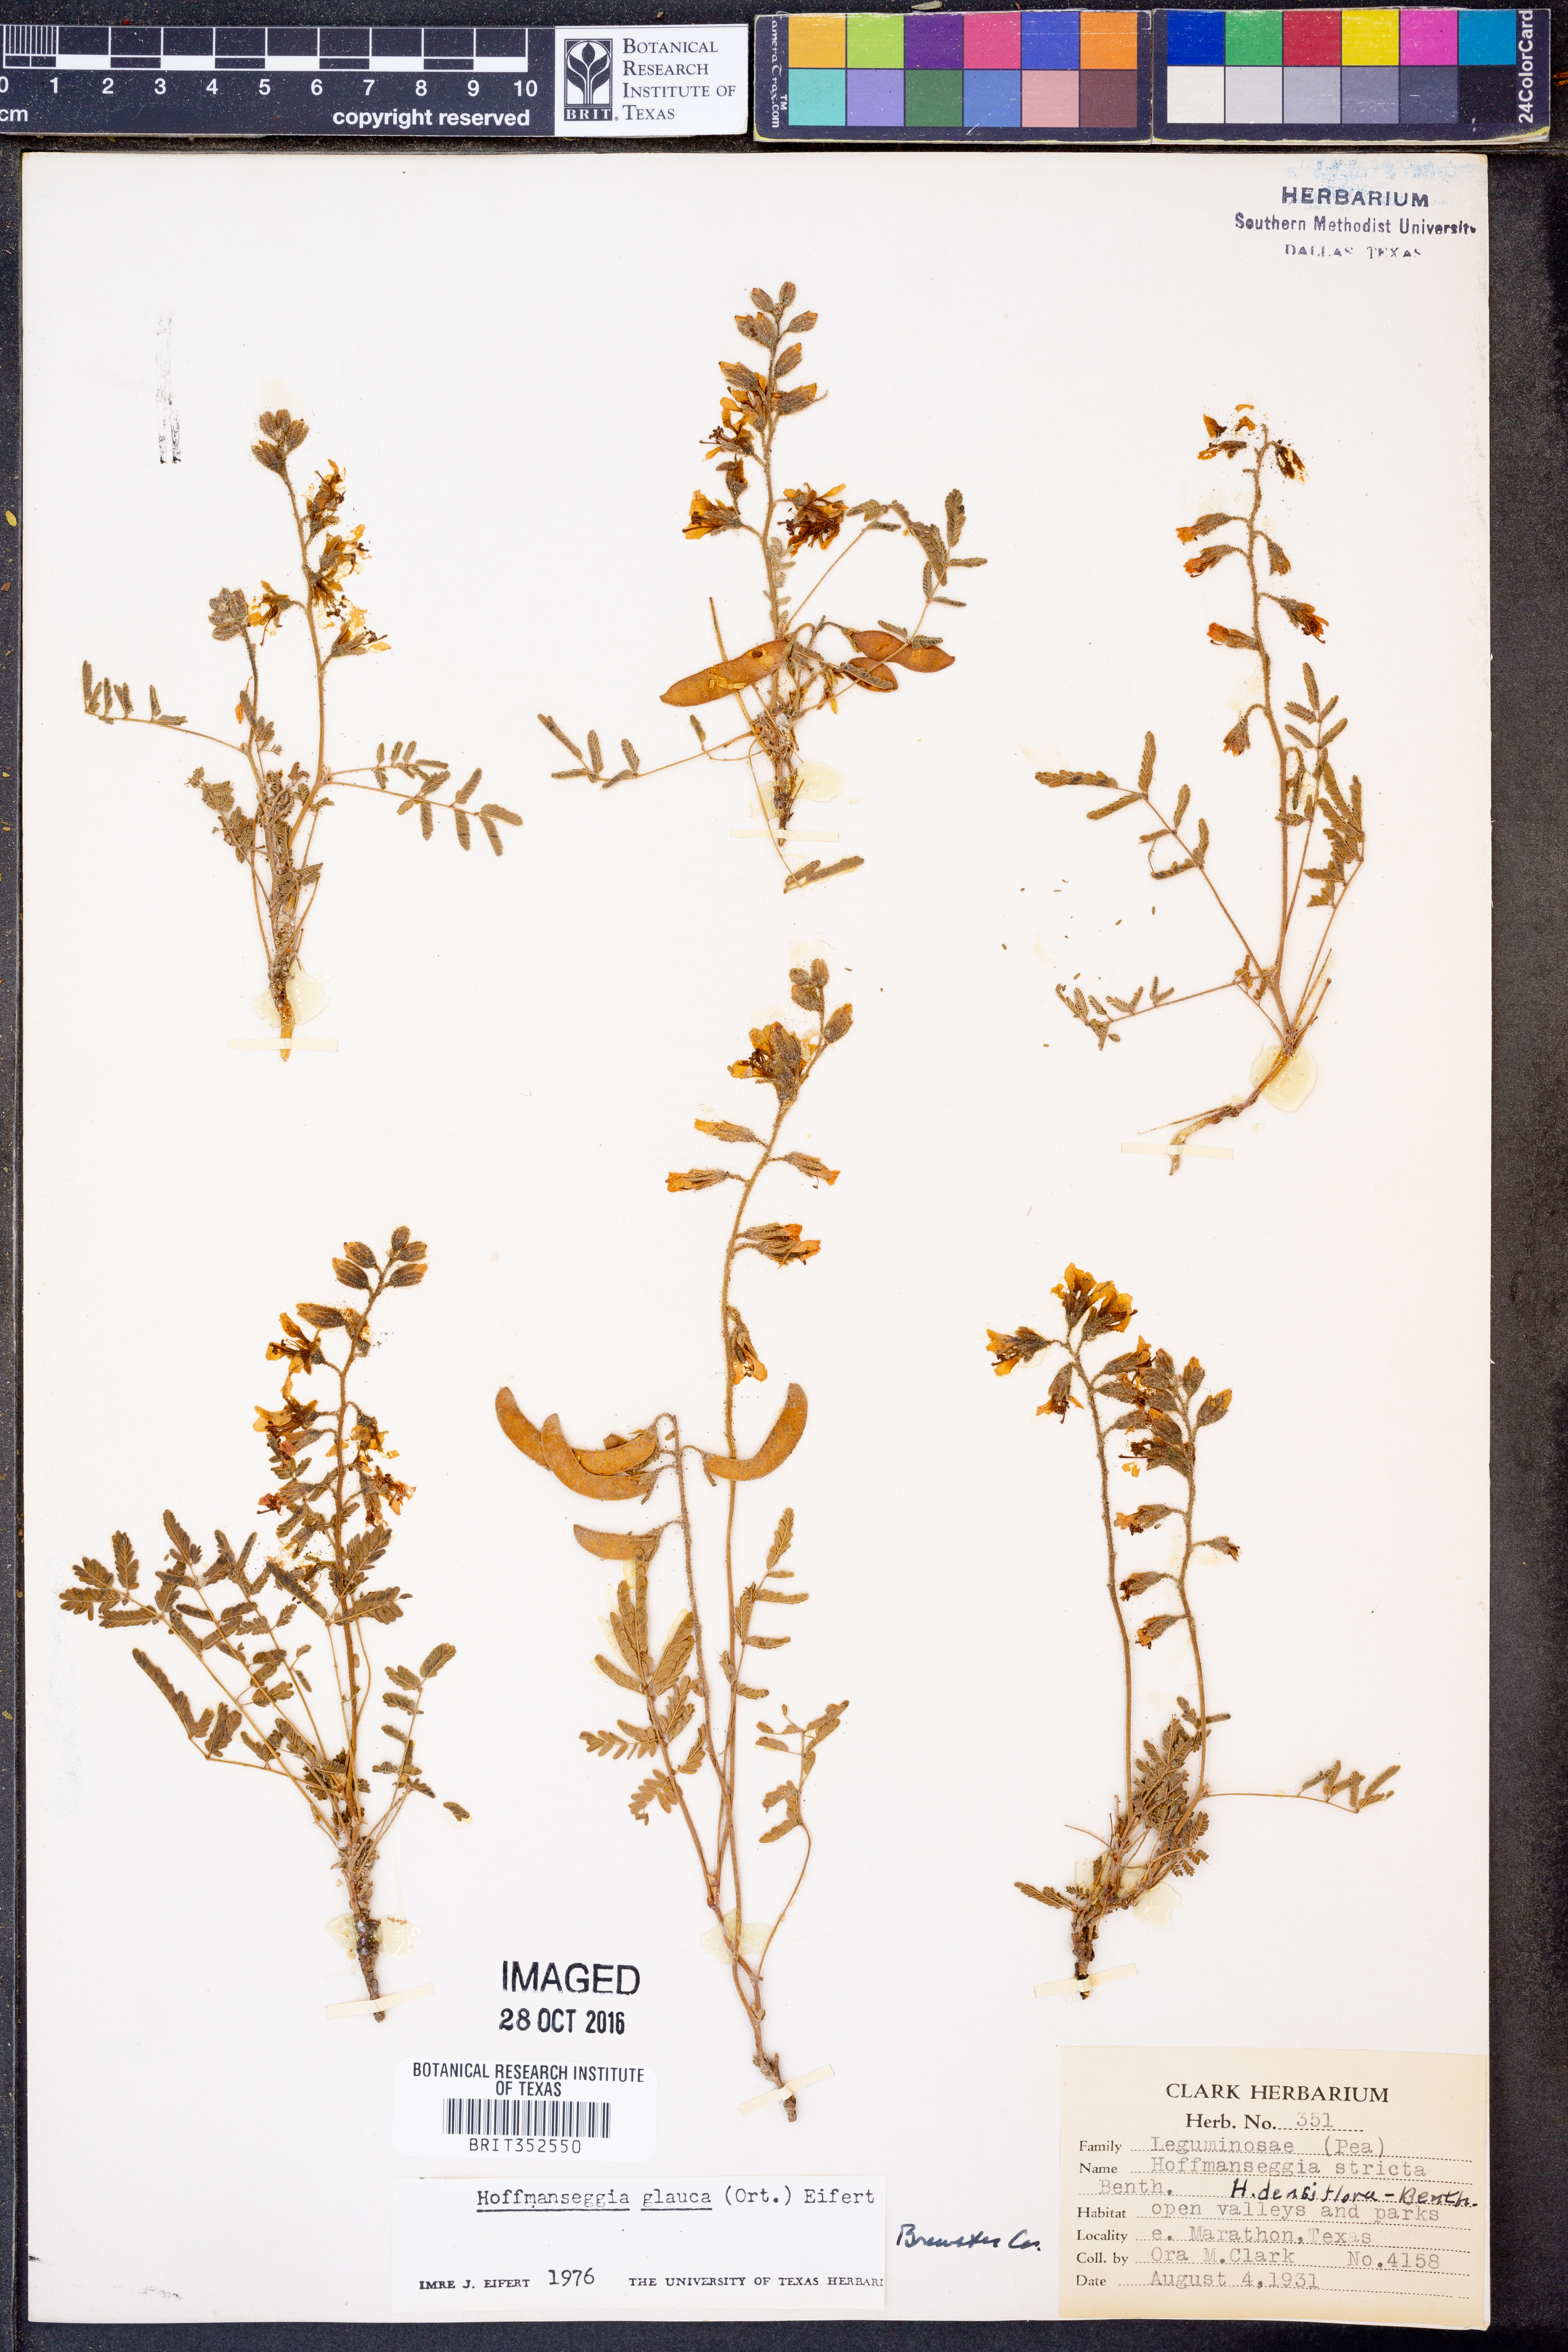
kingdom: Plantae
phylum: Tracheophyta
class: Magnoliopsida
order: Fabales
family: Fabaceae
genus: Hoffmannseggia
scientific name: Hoffmannseggia glauca
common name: Pignut
